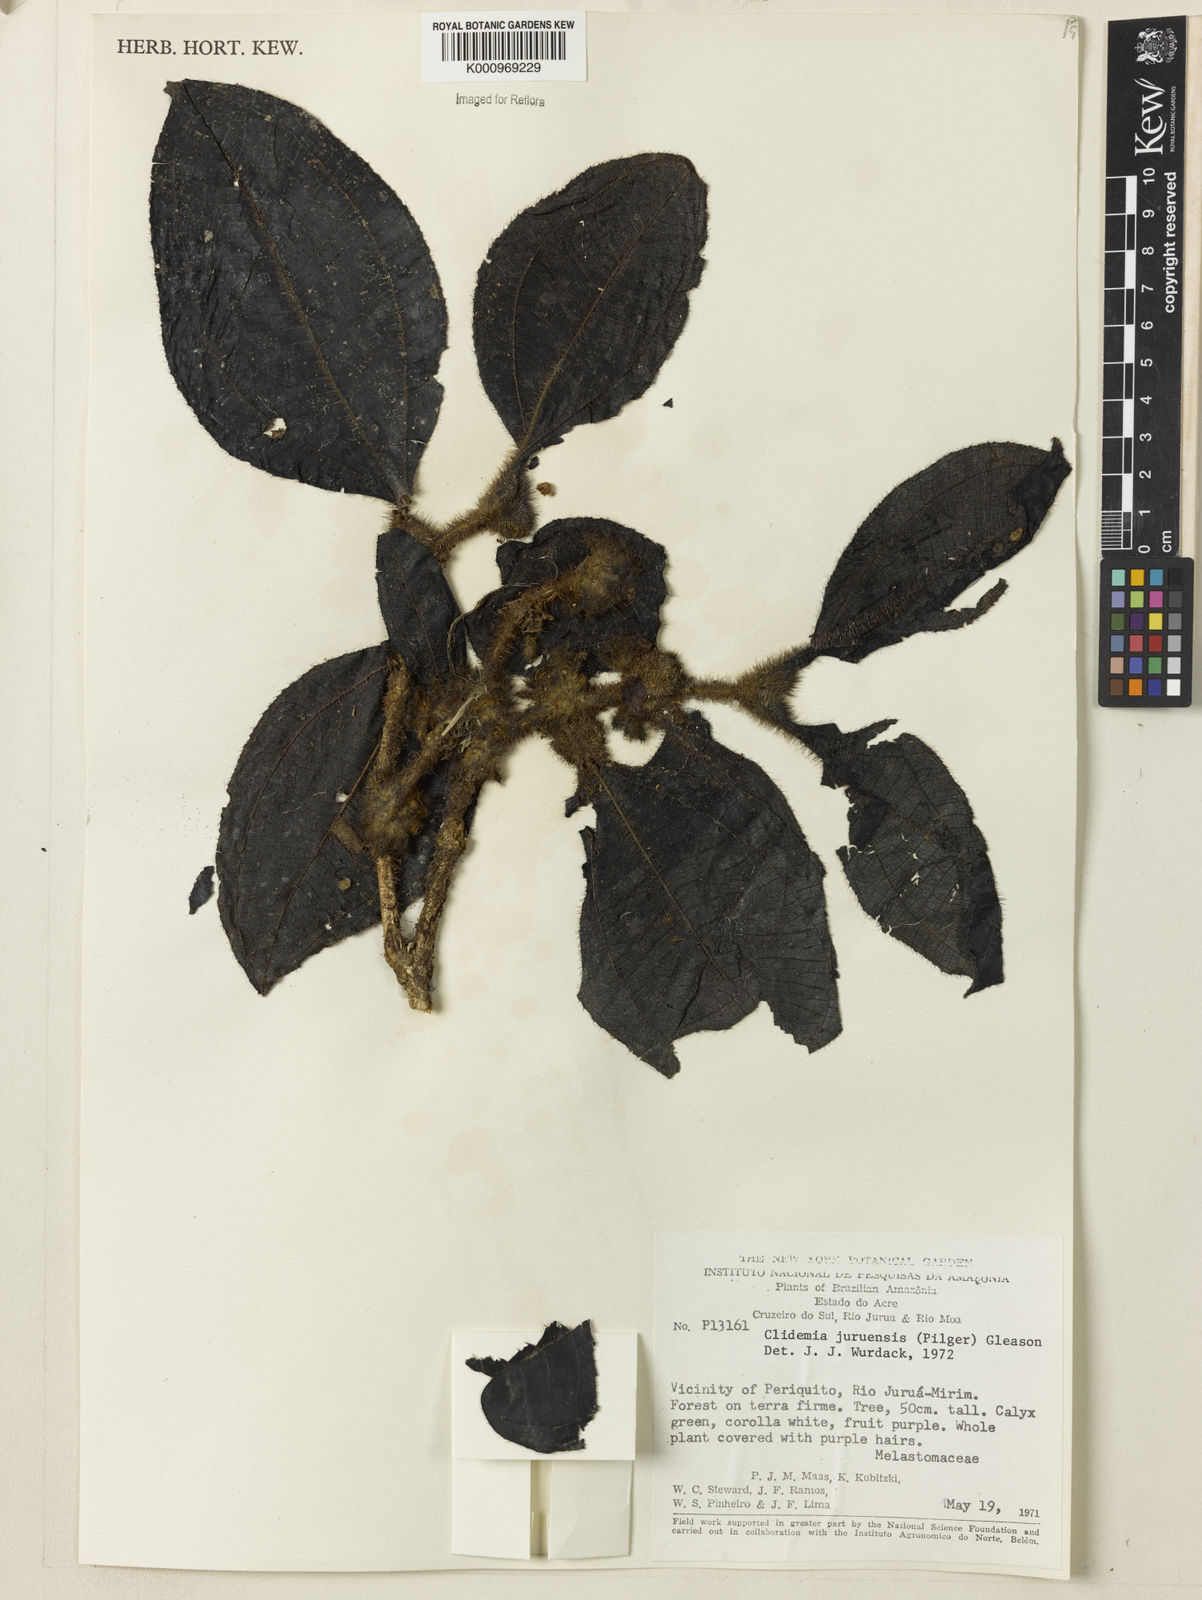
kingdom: Plantae
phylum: Tracheophyta
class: Magnoliopsida
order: Myrtales
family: Melastomataceae
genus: Miconia
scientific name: Miconia formicojuruensis
